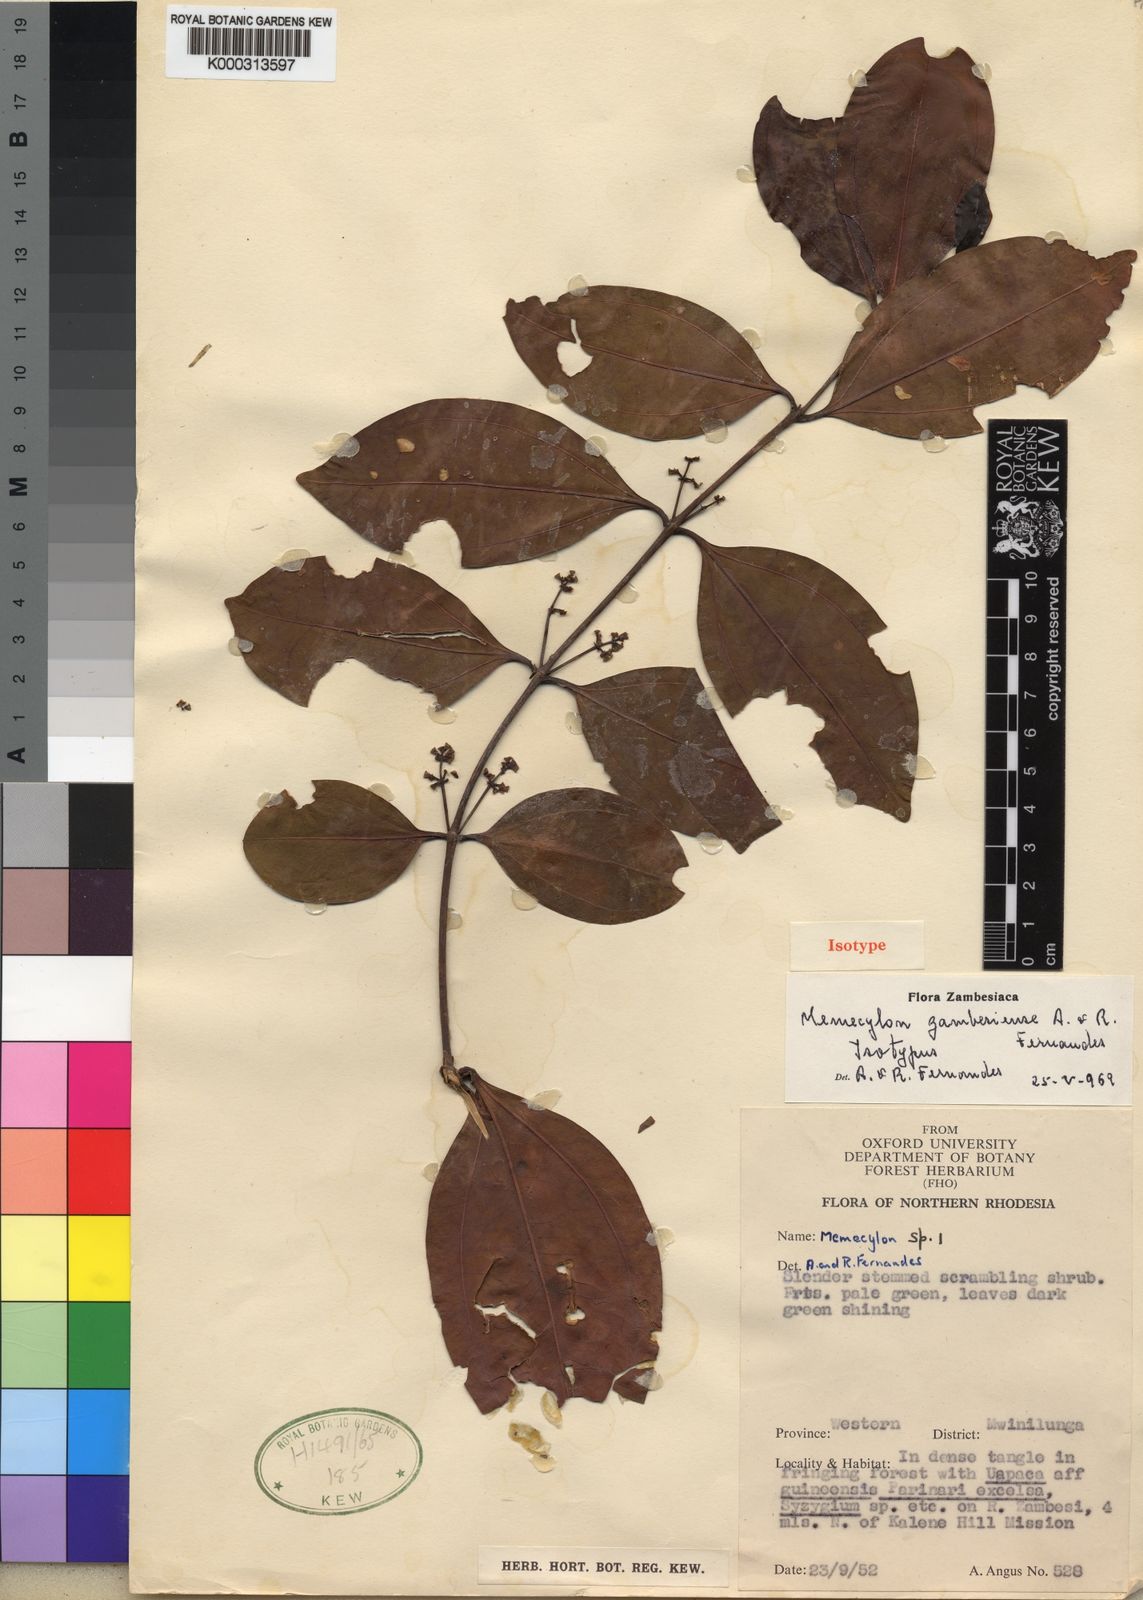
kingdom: Plantae
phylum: Tracheophyta
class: Magnoliopsida
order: Myrtales
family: Melastomataceae
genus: Memecylon
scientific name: Memecylon zambeziense
